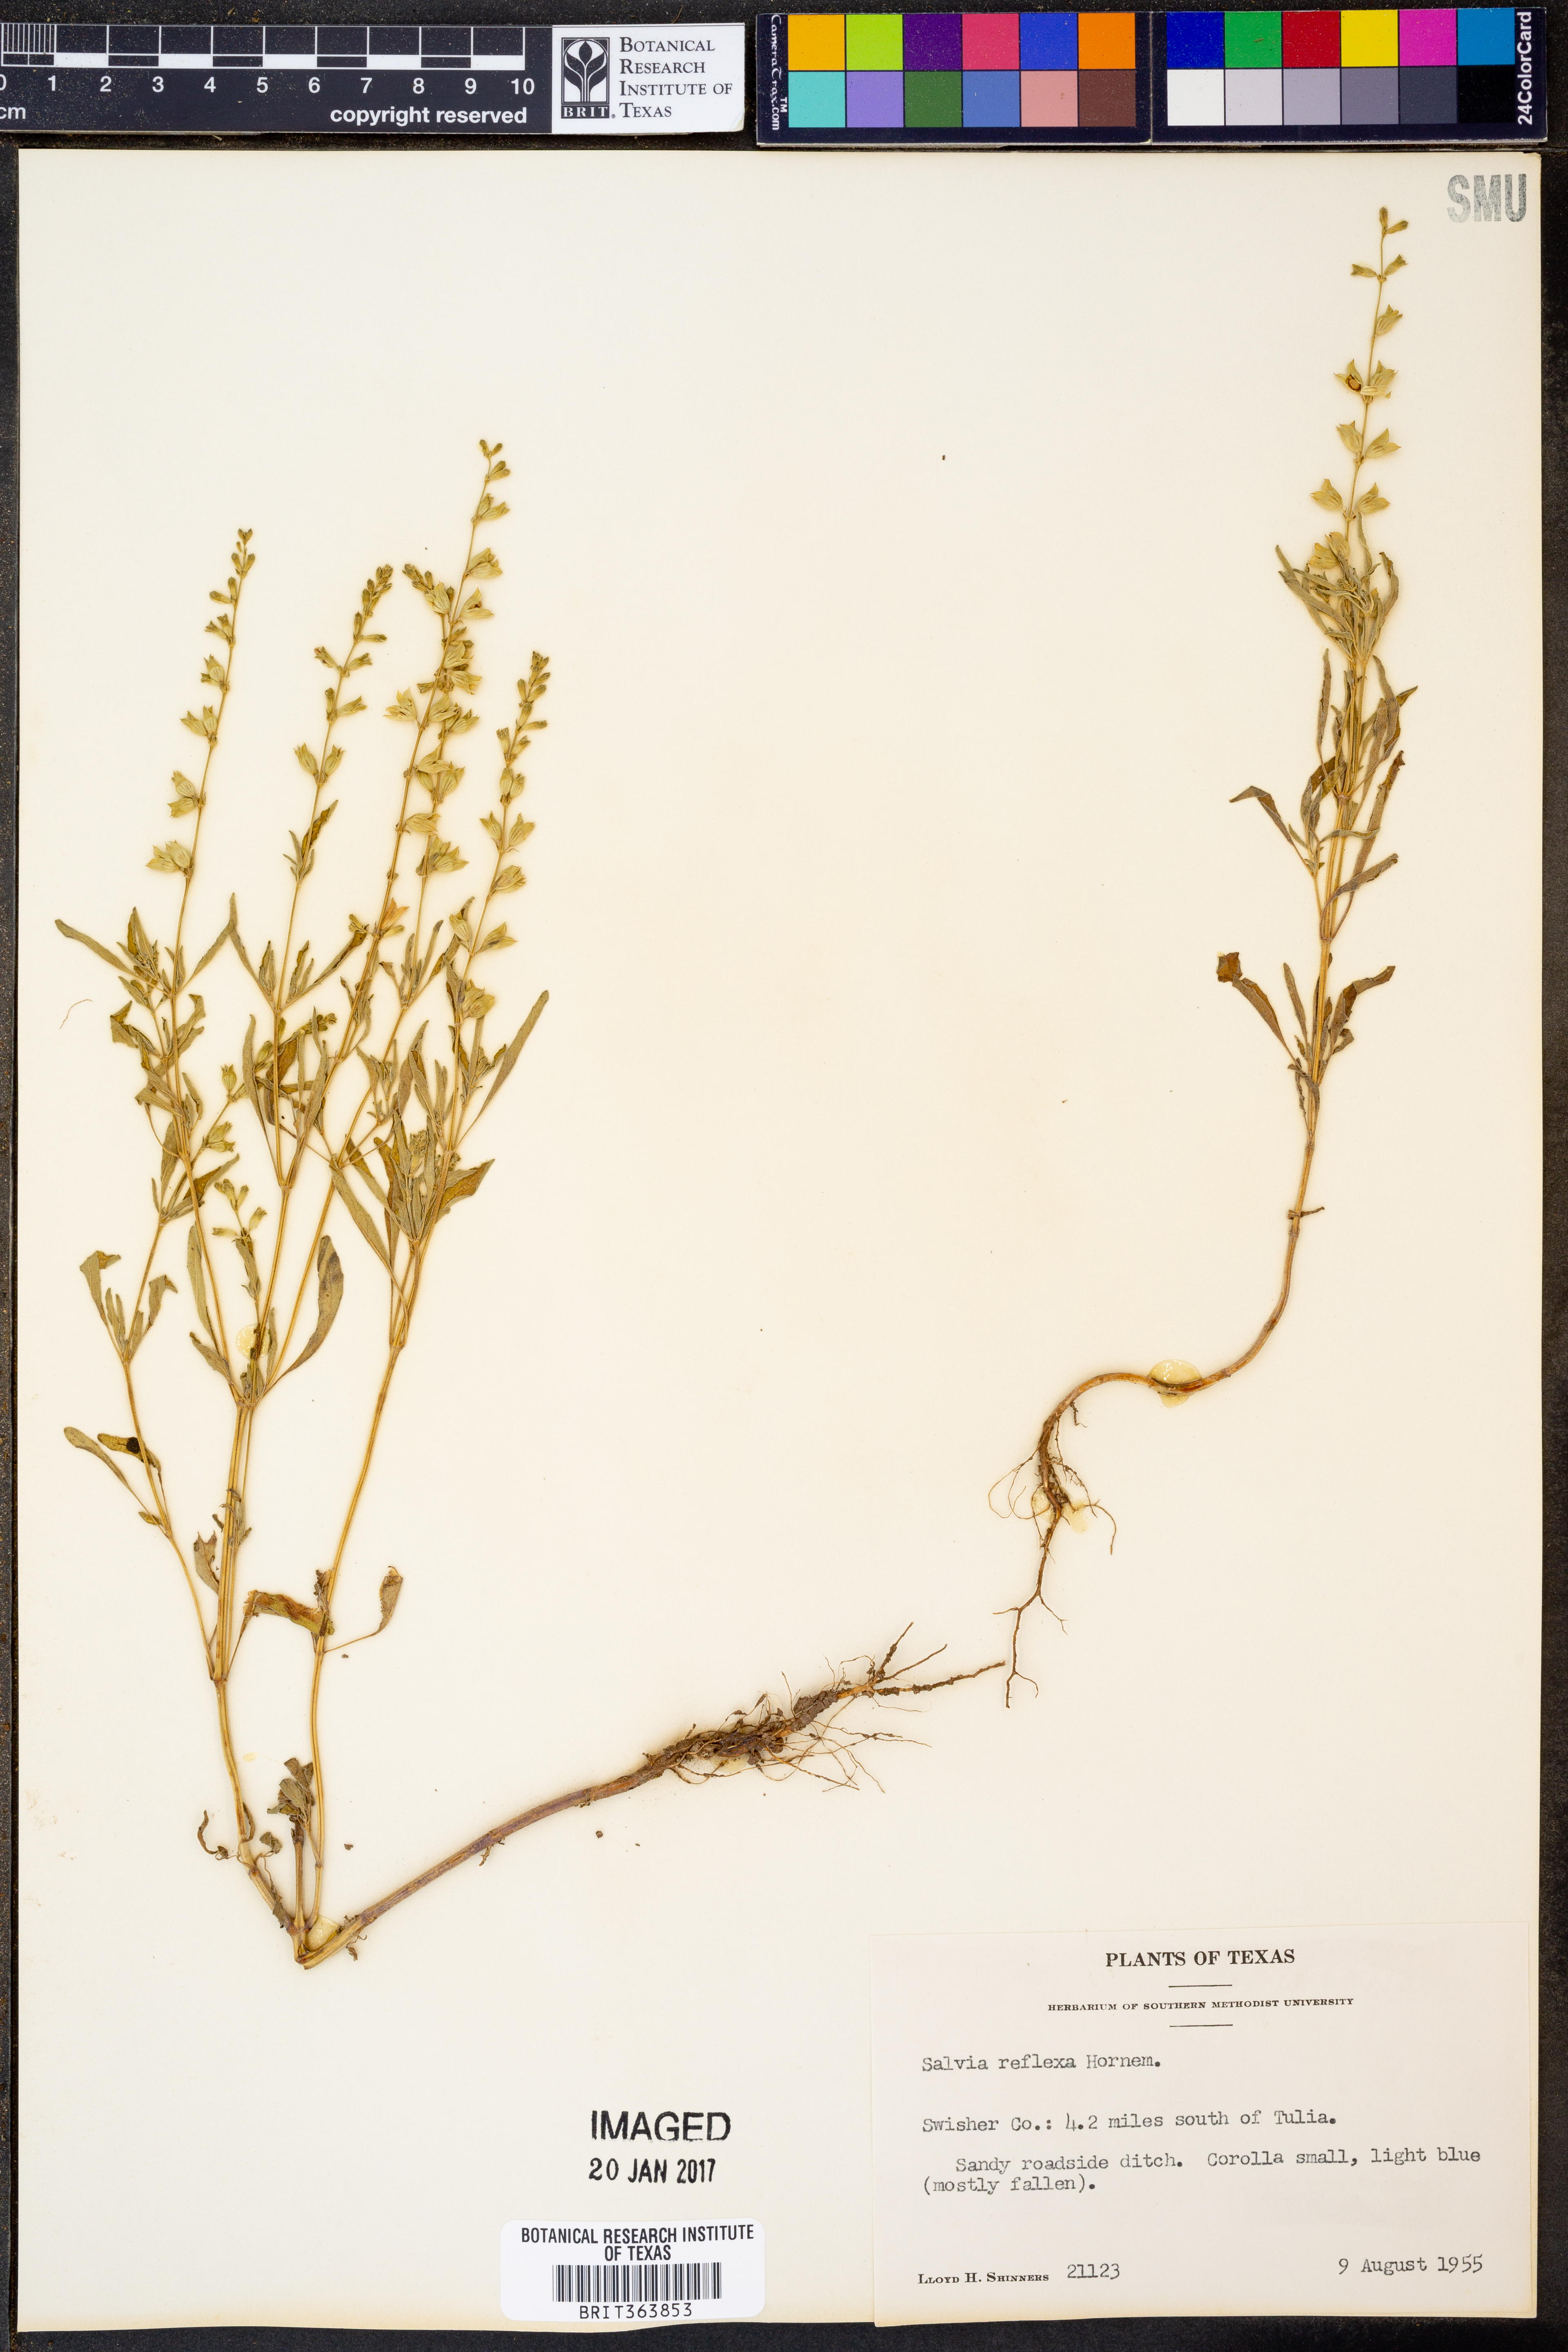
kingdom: Plantae
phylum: Tracheophyta
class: Magnoliopsida
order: Lamiales
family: Lamiaceae
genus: Salvia
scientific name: Salvia reflexa
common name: Mintweed
